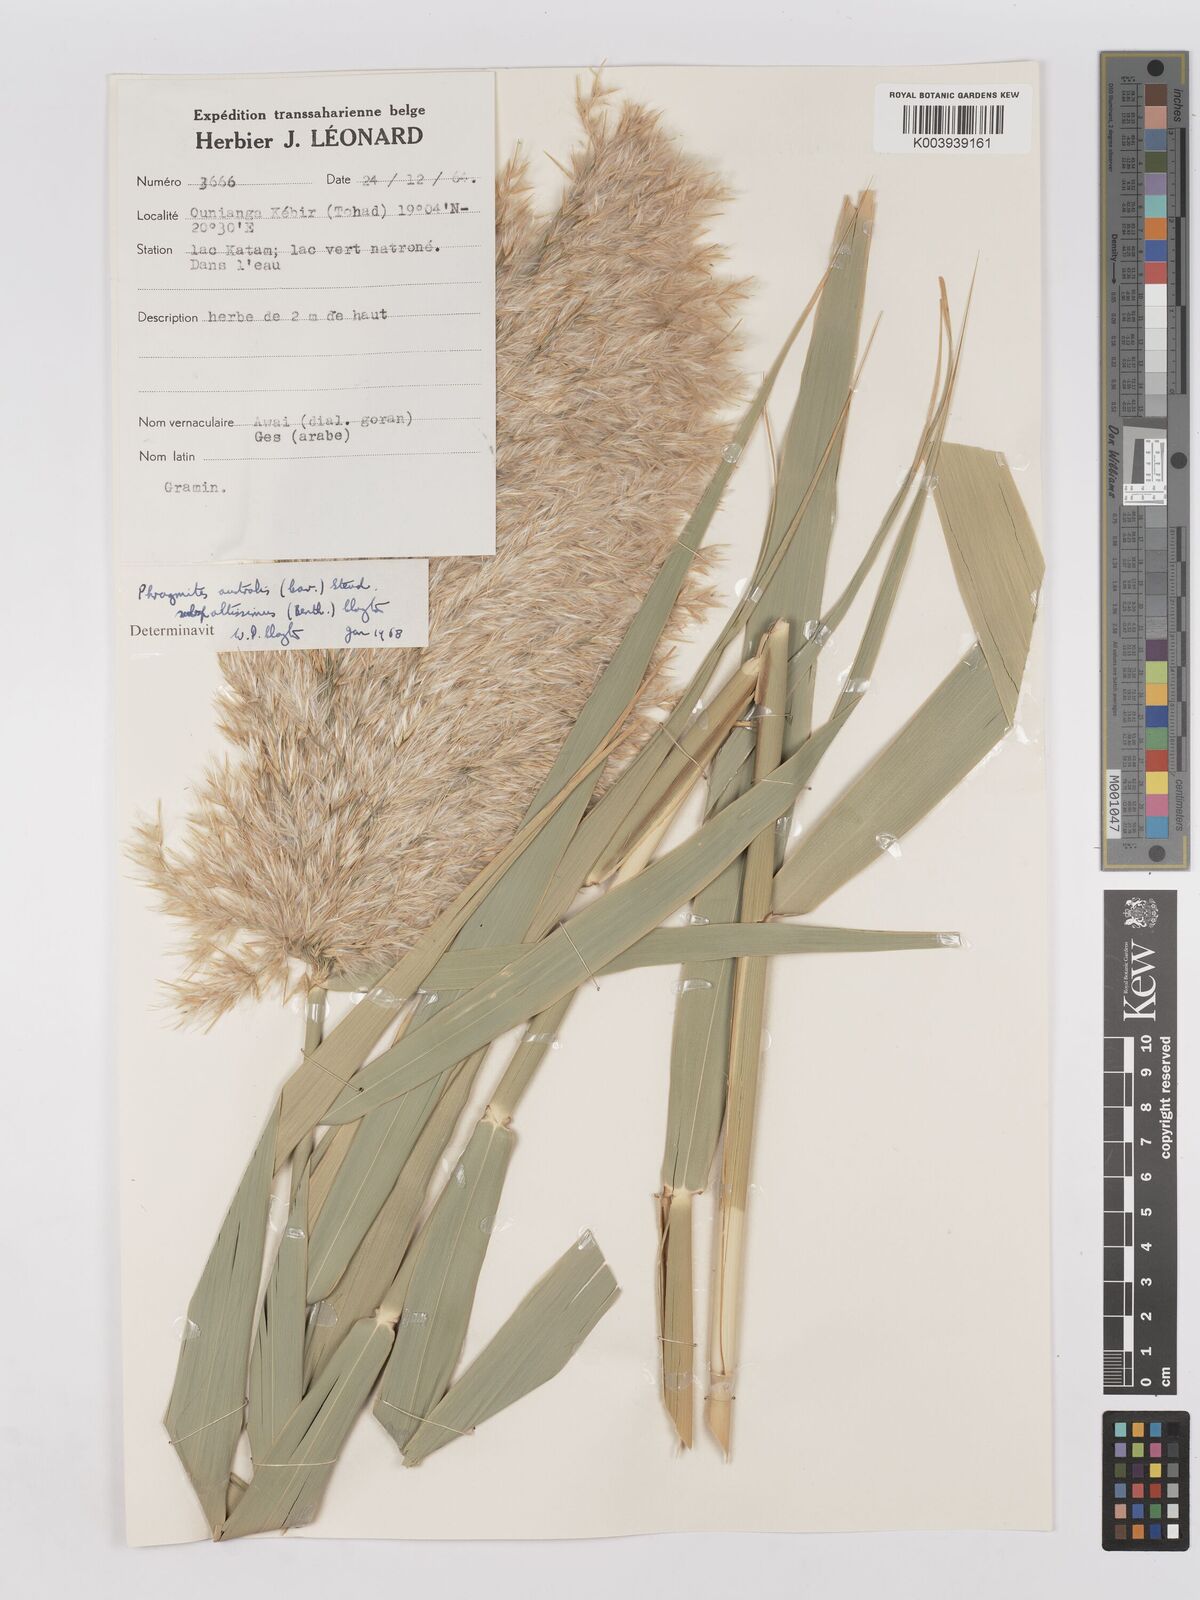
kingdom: Plantae
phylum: Tracheophyta
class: Liliopsida
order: Poales
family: Poaceae
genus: Phragmites
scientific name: Phragmites australis
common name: Common reed
